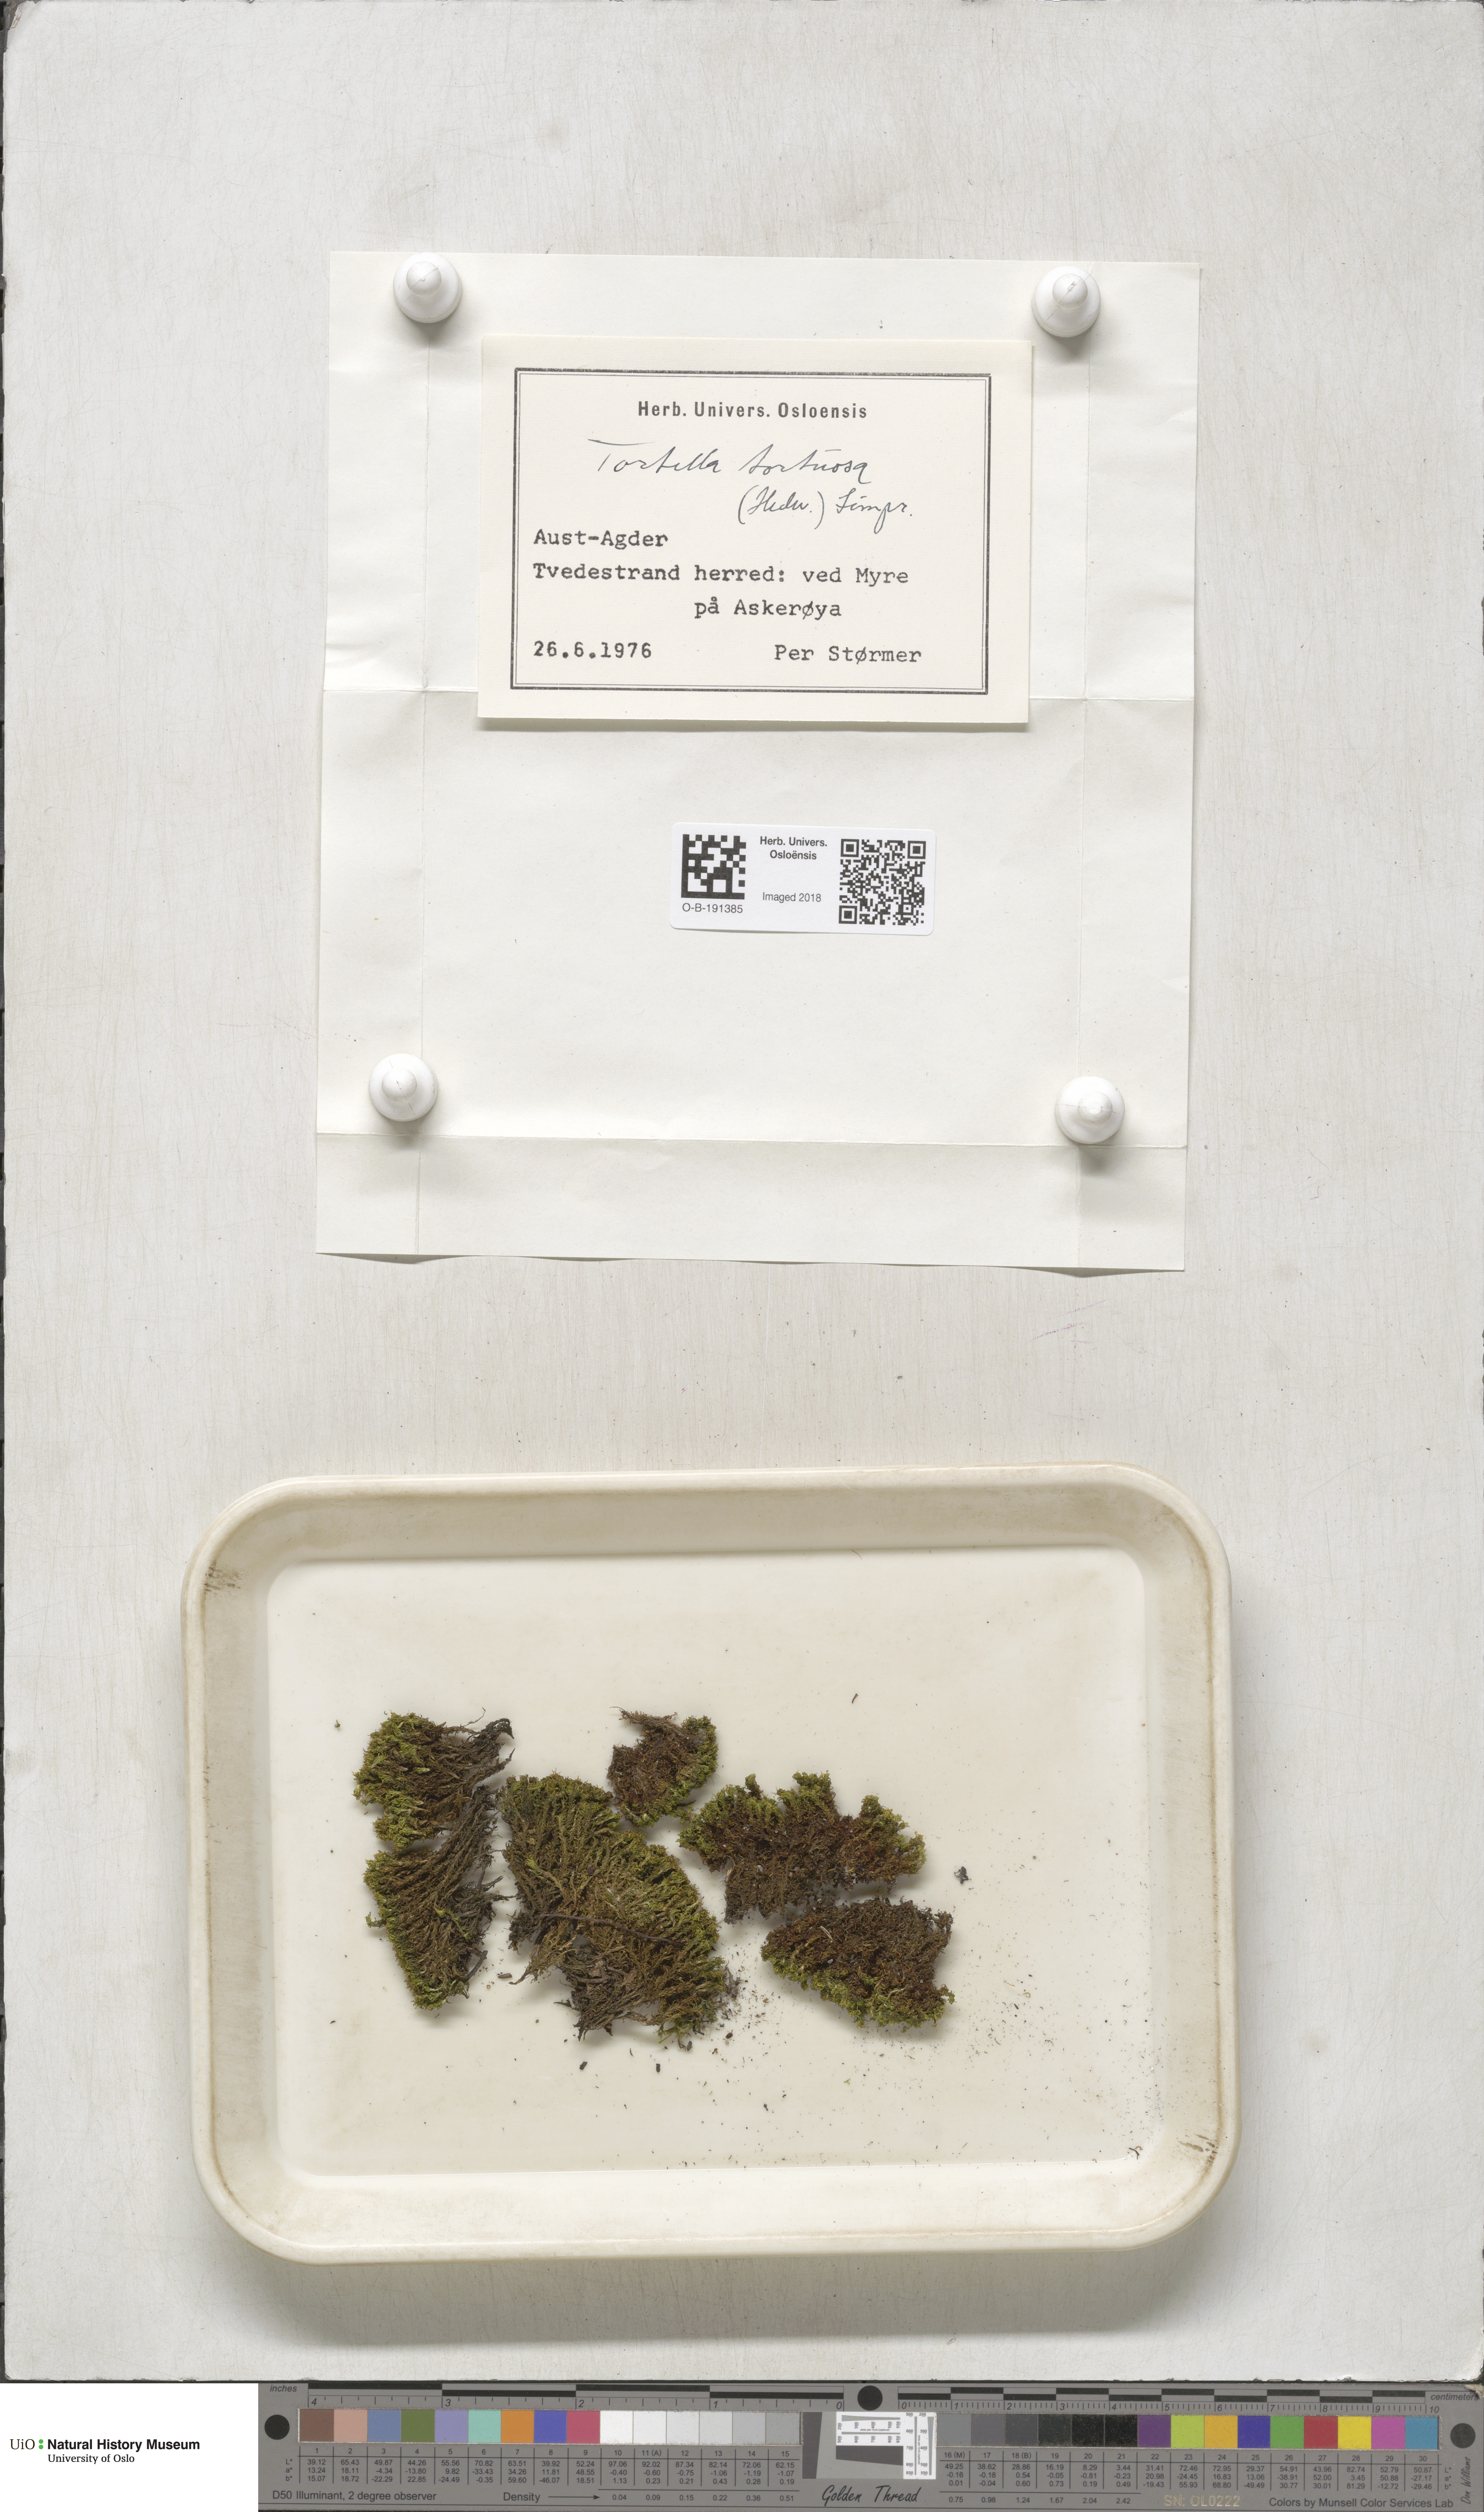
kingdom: Plantae
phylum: Bryophyta
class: Bryopsida
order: Pottiales
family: Pottiaceae
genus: Tortella
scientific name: Tortella tortuosa
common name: Frizzled crisp moss
